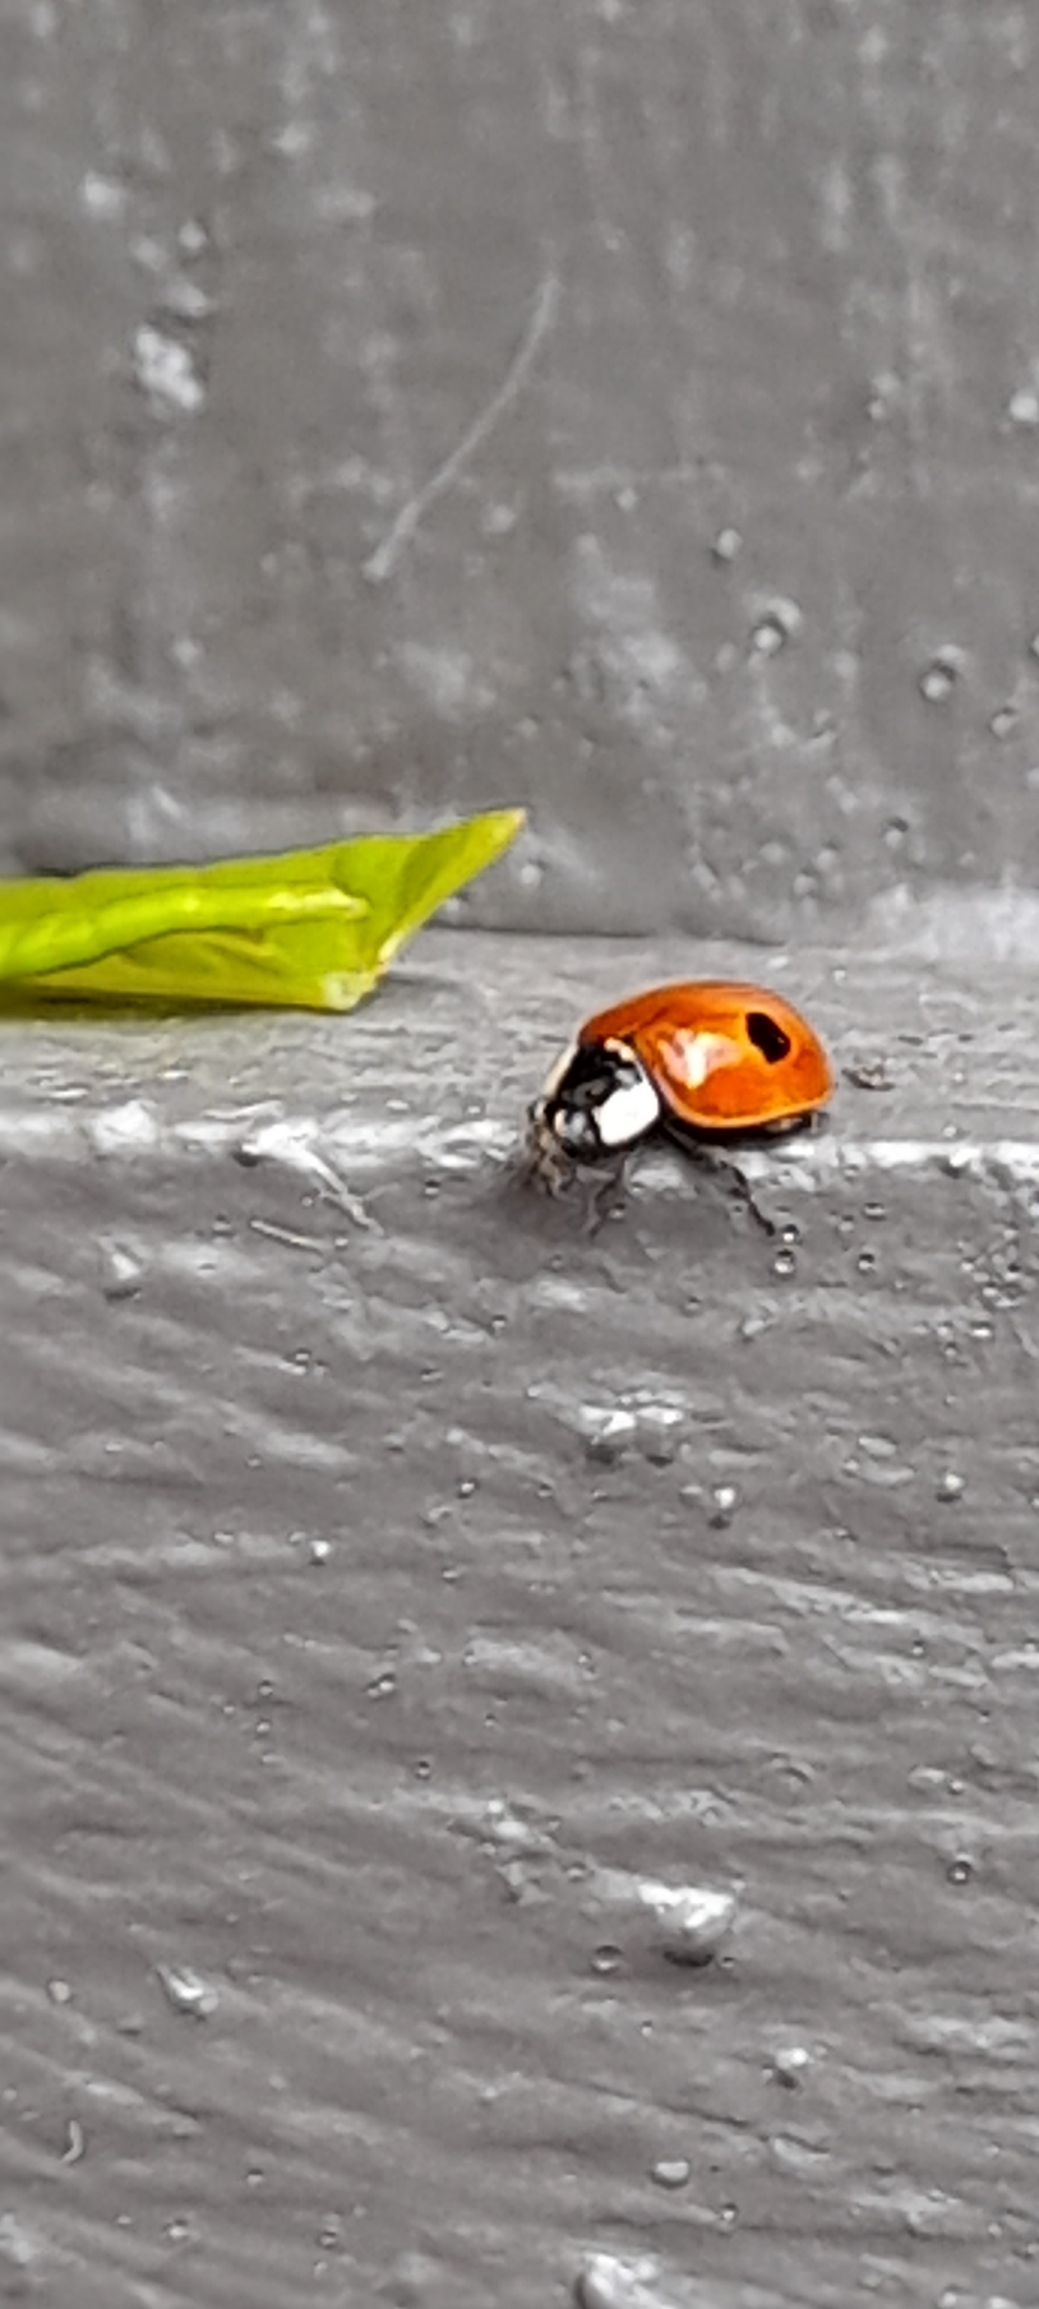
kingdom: Animalia
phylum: Arthropoda
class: Insecta
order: Coleoptera
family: Coccinellidae
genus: Adalia
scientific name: Adalia bipunctata
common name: Toplettet mariehøne
